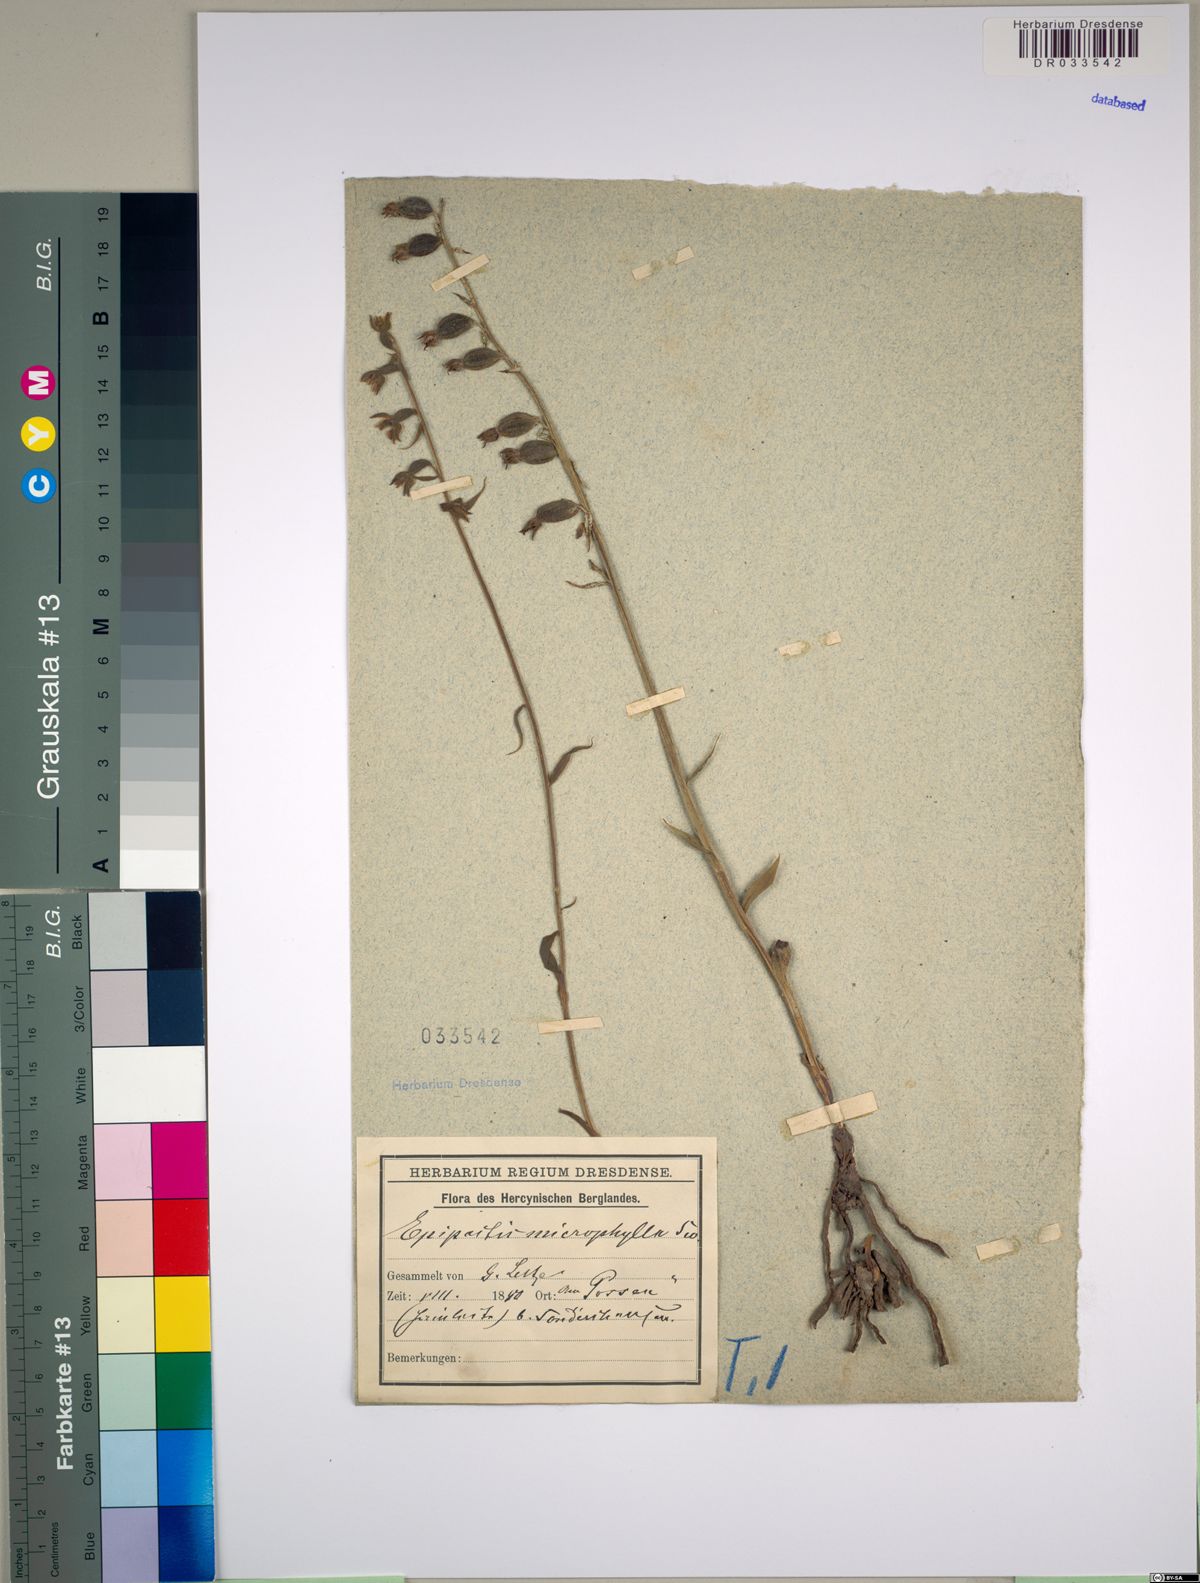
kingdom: Plantae
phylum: Tracheophyta
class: Liliopsida
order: Asparagales
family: Orchidaceae
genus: Epipactis
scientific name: Epipactis microphylla
